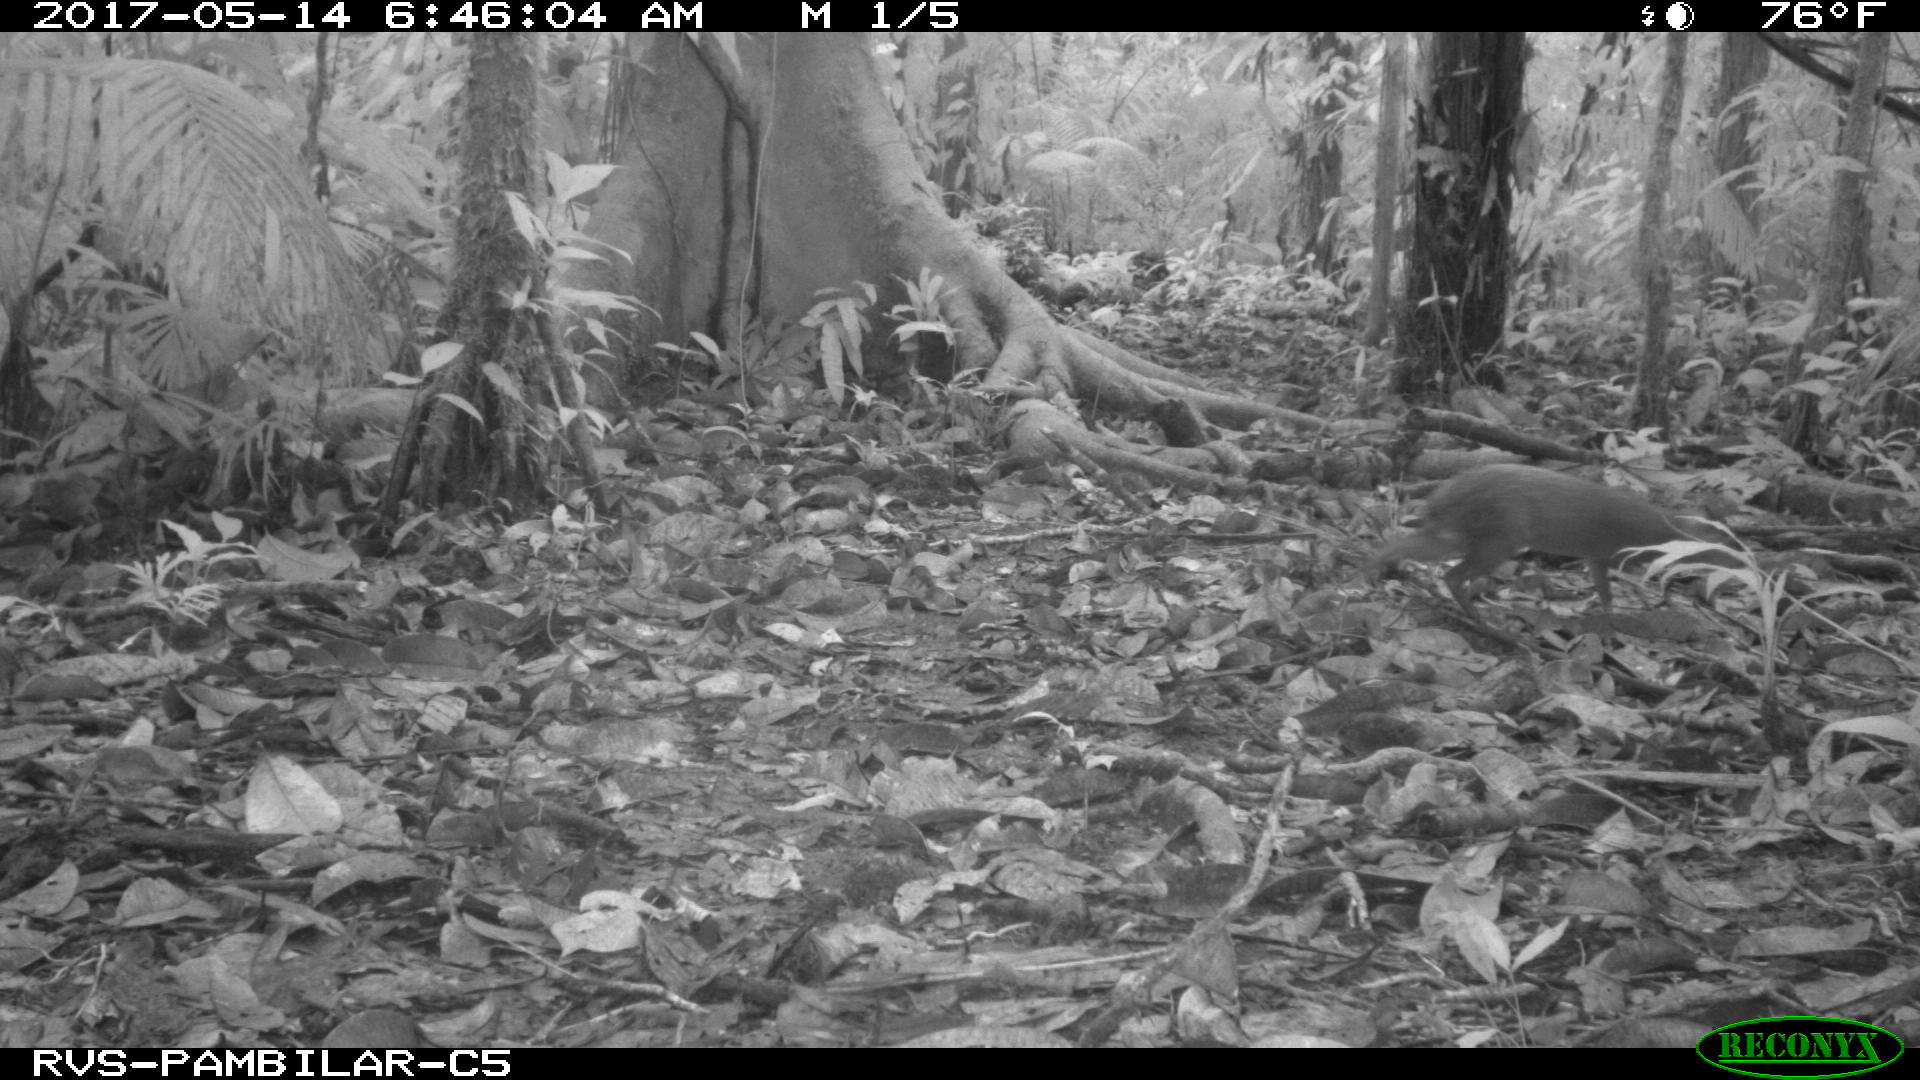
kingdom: Animalia
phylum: Chordata
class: Mammalia
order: Rodentia
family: Dasyproctidae
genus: Dasyprocta
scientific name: Dasyprocta punctata
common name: Central american agouti
